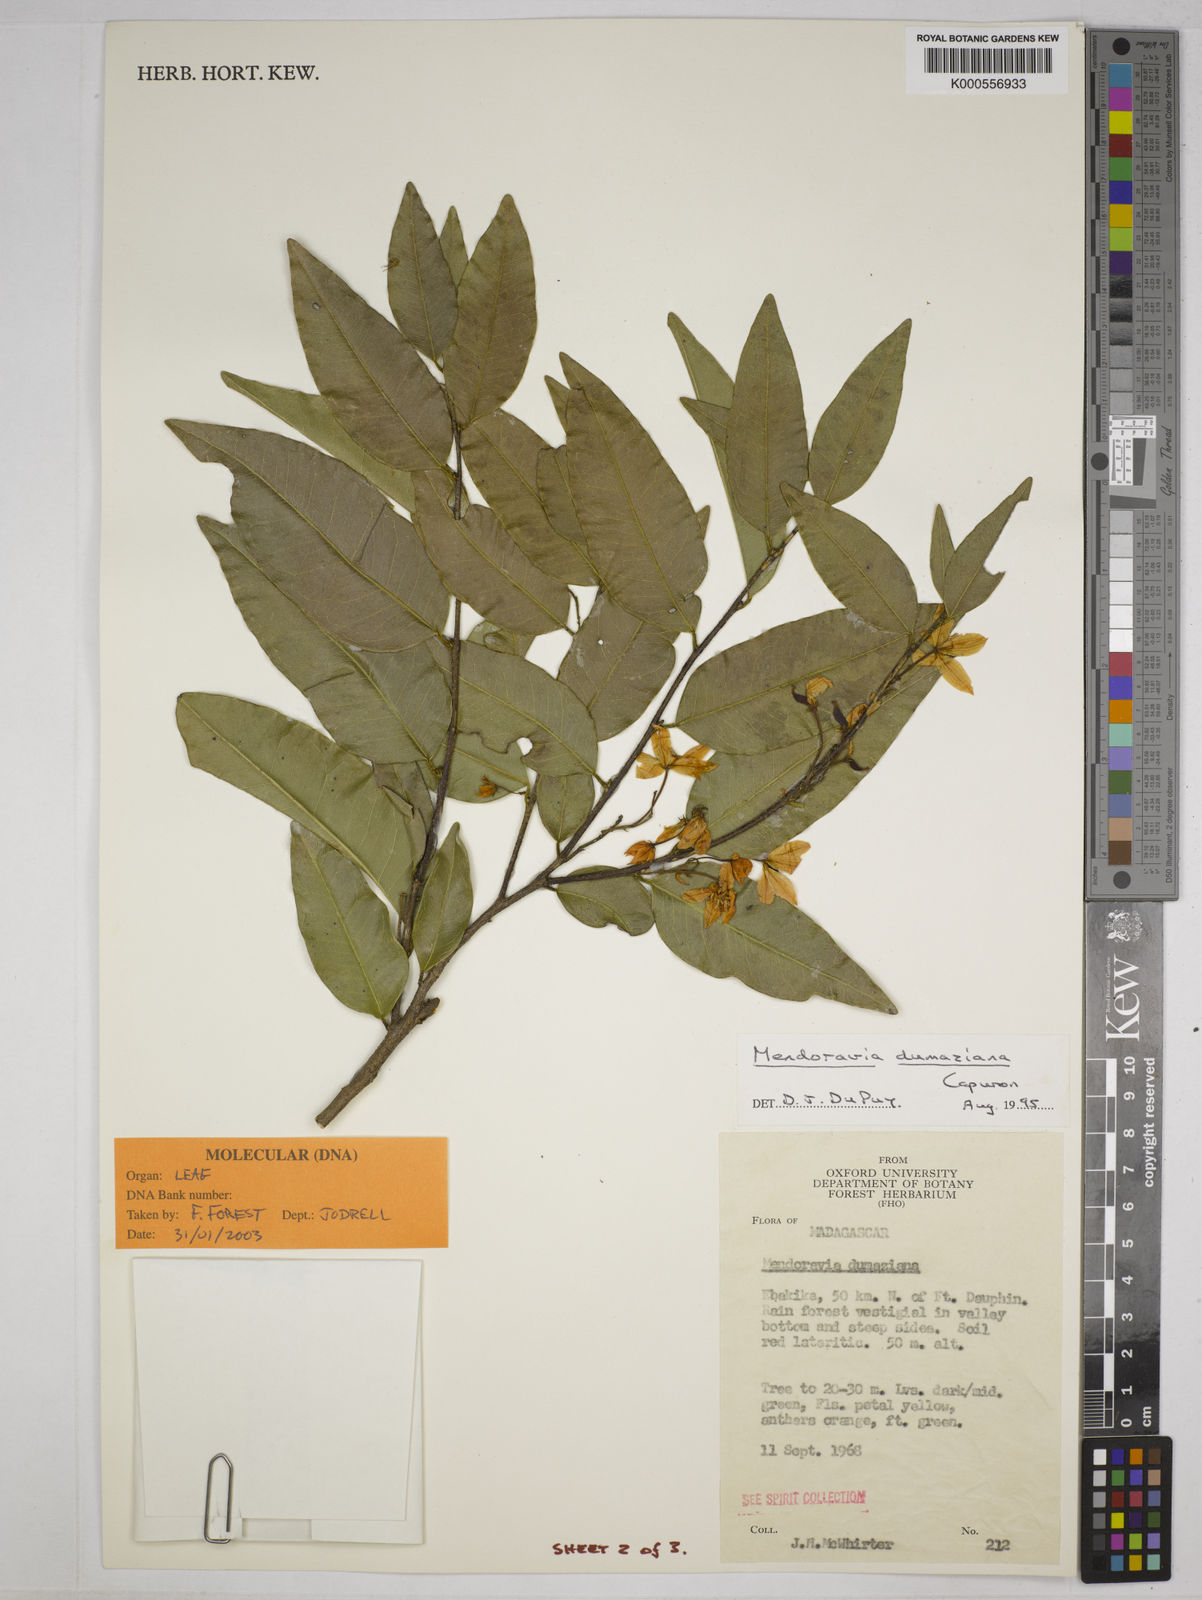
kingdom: Plantae
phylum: Tracheophyta
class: Magnoliopsida
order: Fabales
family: Fabaceae
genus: Mendoravia
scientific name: Mendoravia dumaziana
